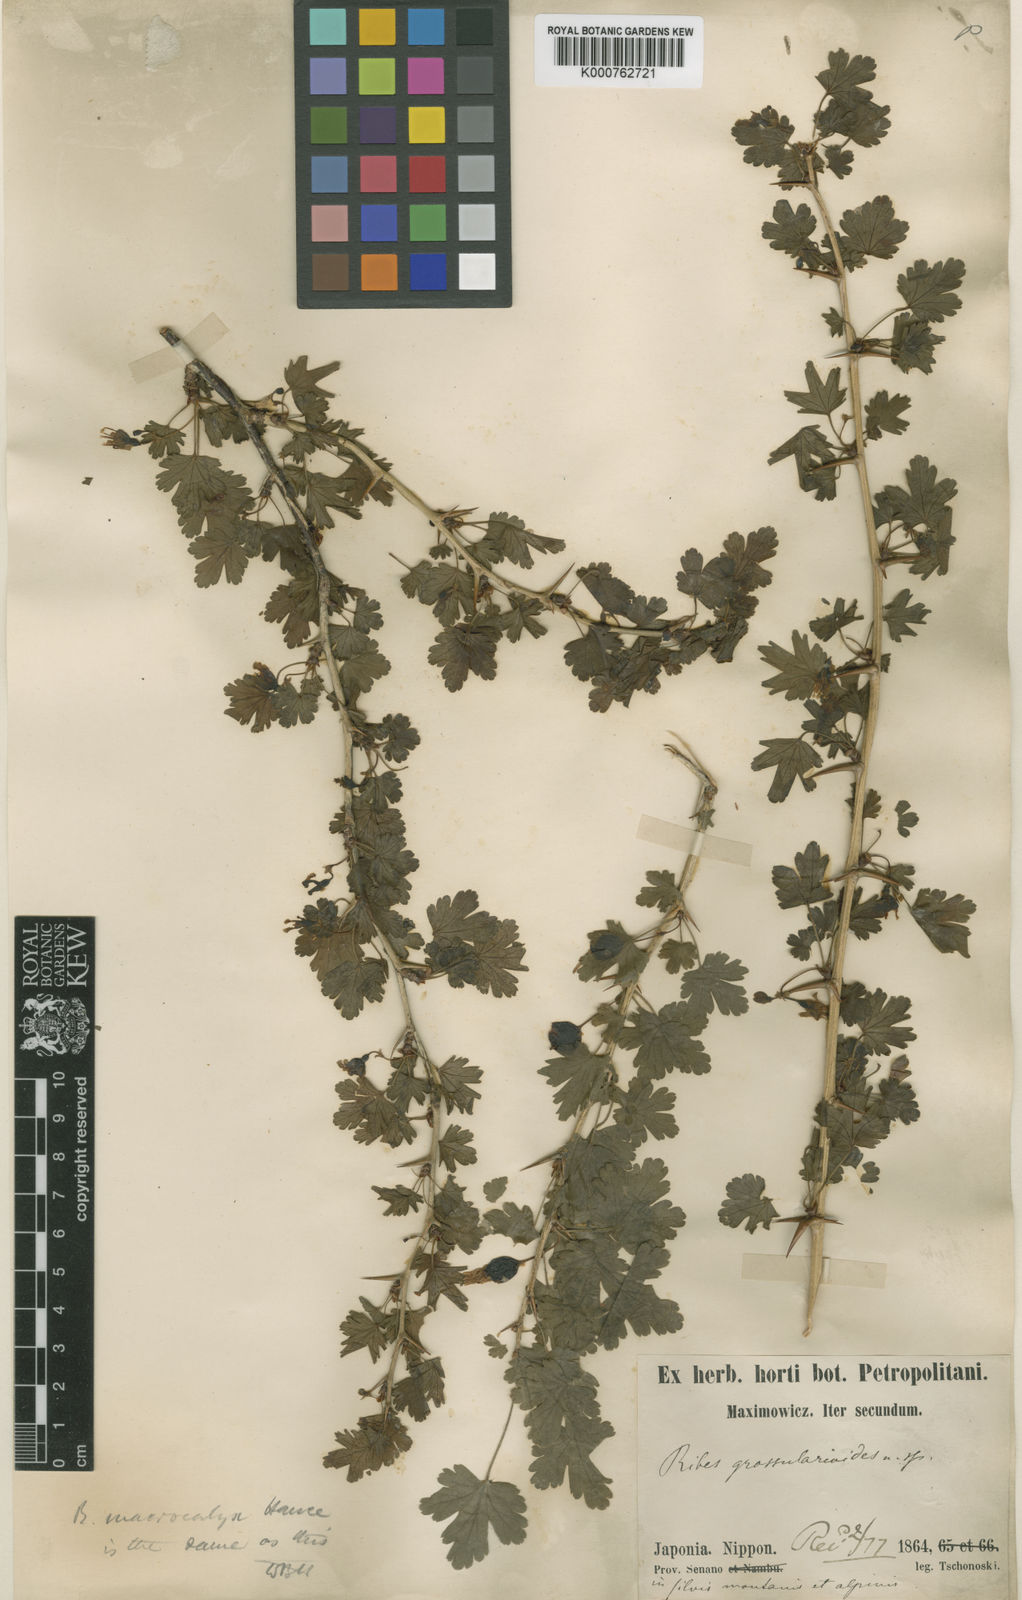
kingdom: Plantae
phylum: Tracheophyta
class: Magnoliopsida
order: Saxifragales
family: Grossulariaceae
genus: Ribes
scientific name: Ribes burejense
